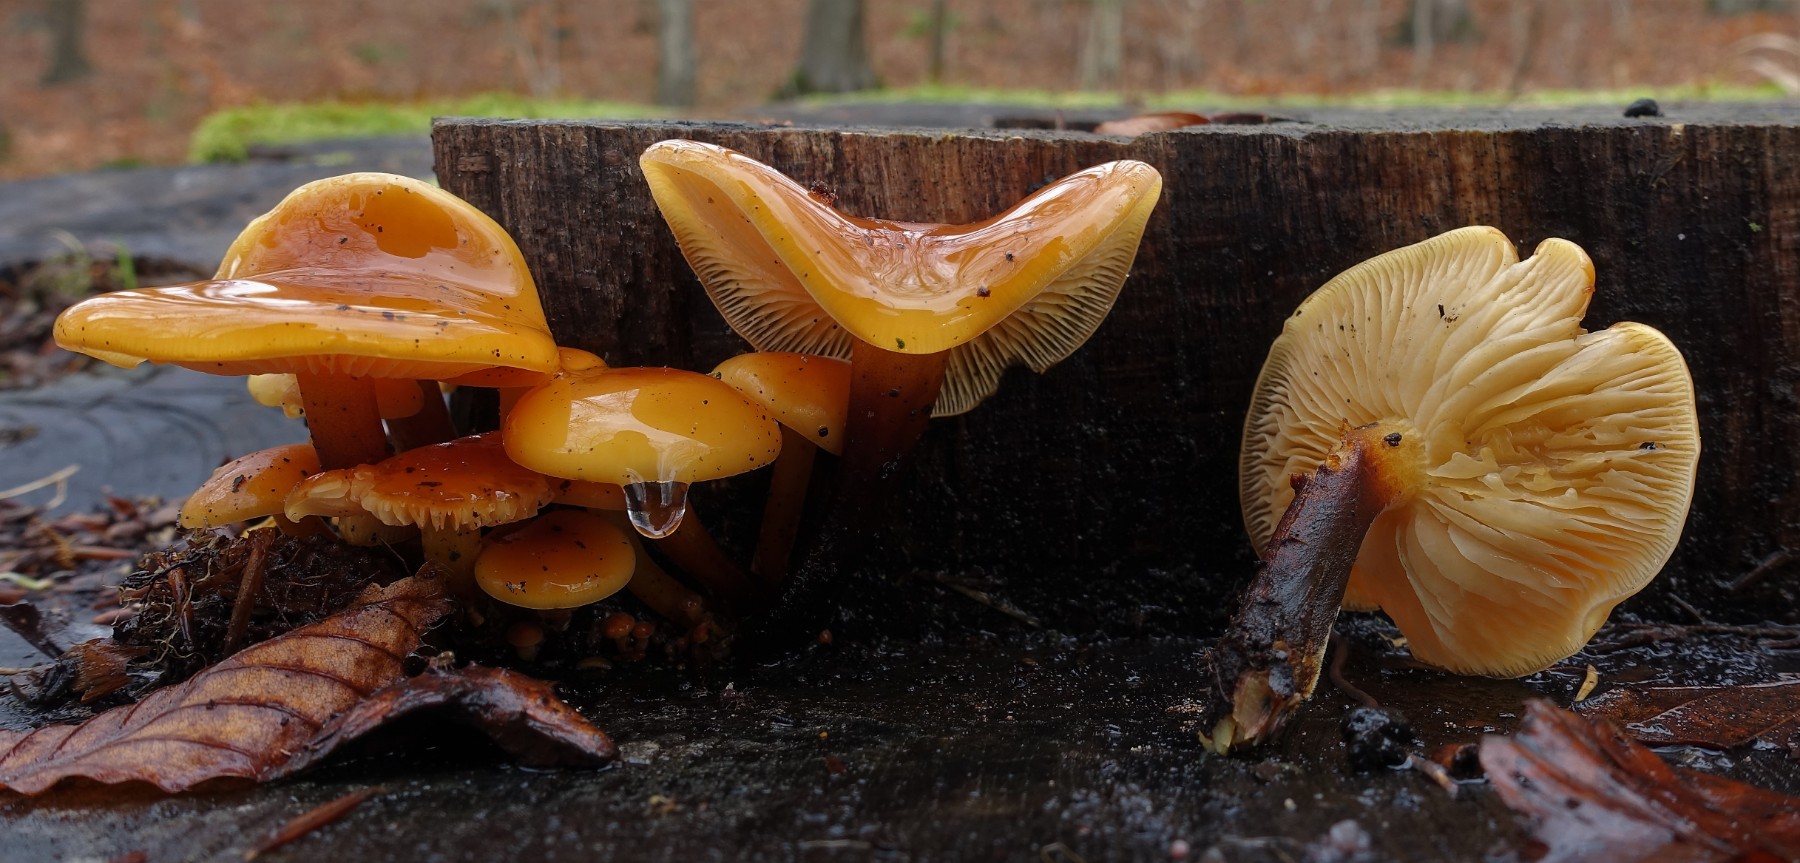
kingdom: Fungi
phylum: Basidiomycota
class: Agaricomycetes
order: Agaricales
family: Physalacriaceae
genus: Flammulina
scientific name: Flammulina velutipes
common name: gul fløjlsfod
